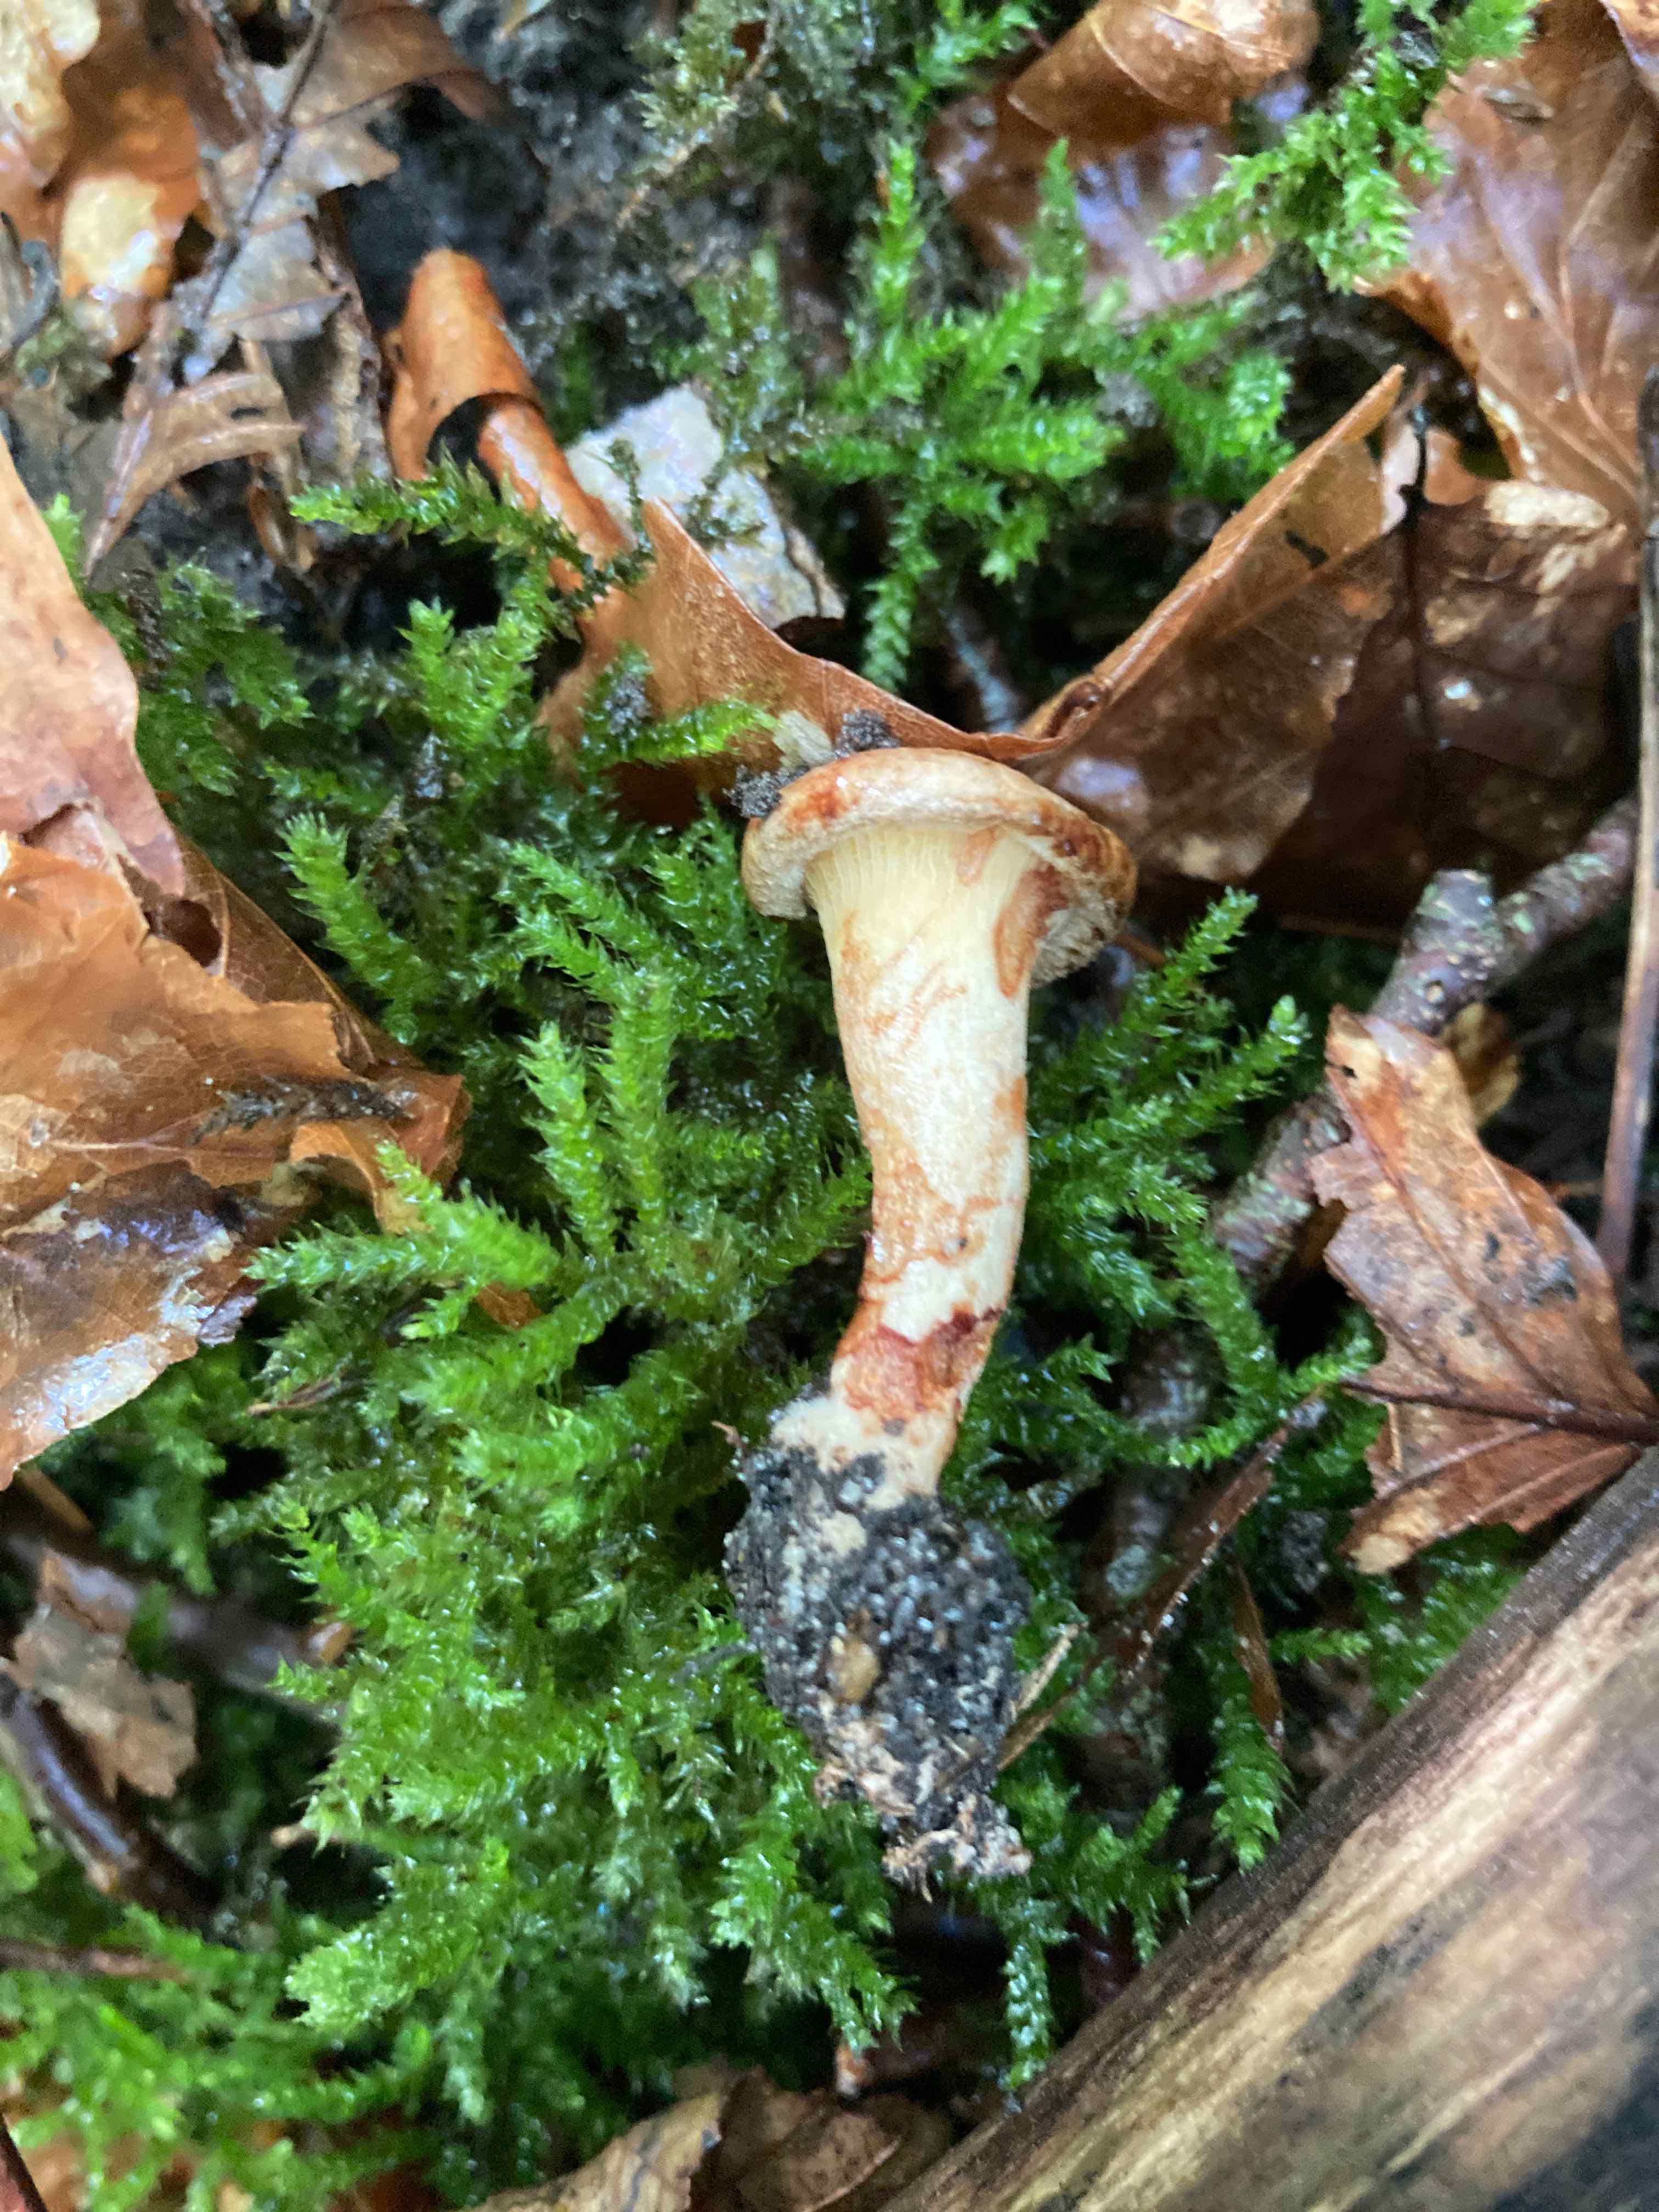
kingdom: Fungi
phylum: Basidiomycota
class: Agaricomycetes
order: Boletales
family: Paxillaceae
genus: Paxillus
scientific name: Paxillus rubicundulus
